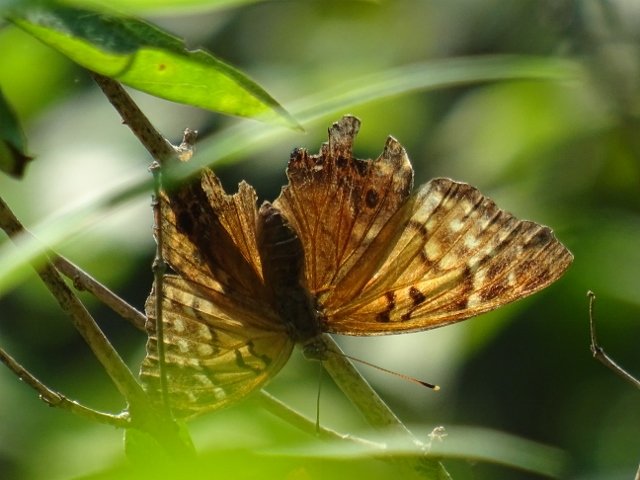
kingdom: Animalia
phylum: Arthropoda
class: Insecta
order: Lepidoptera
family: Nymphalidae
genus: Asterocampa
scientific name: Asterocampa clyton
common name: Tawny Emperor
